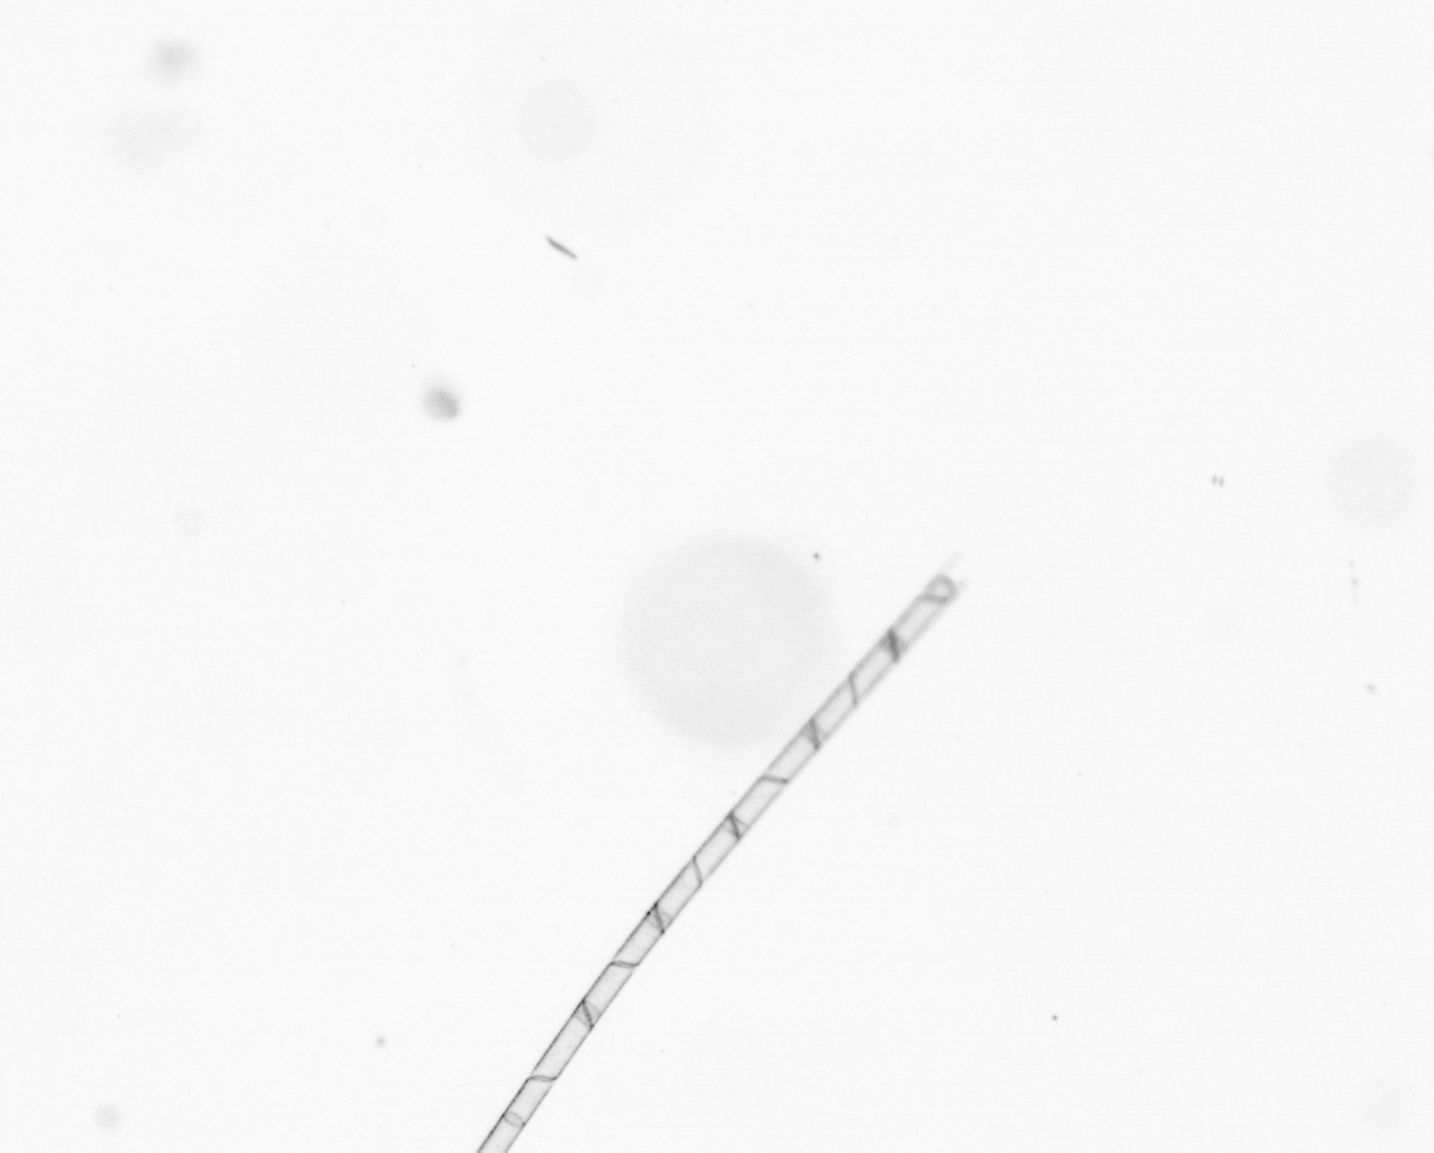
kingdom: Chromista
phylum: Ochrophyta
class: Bacillariophyceae
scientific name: Bacillariophyceae
